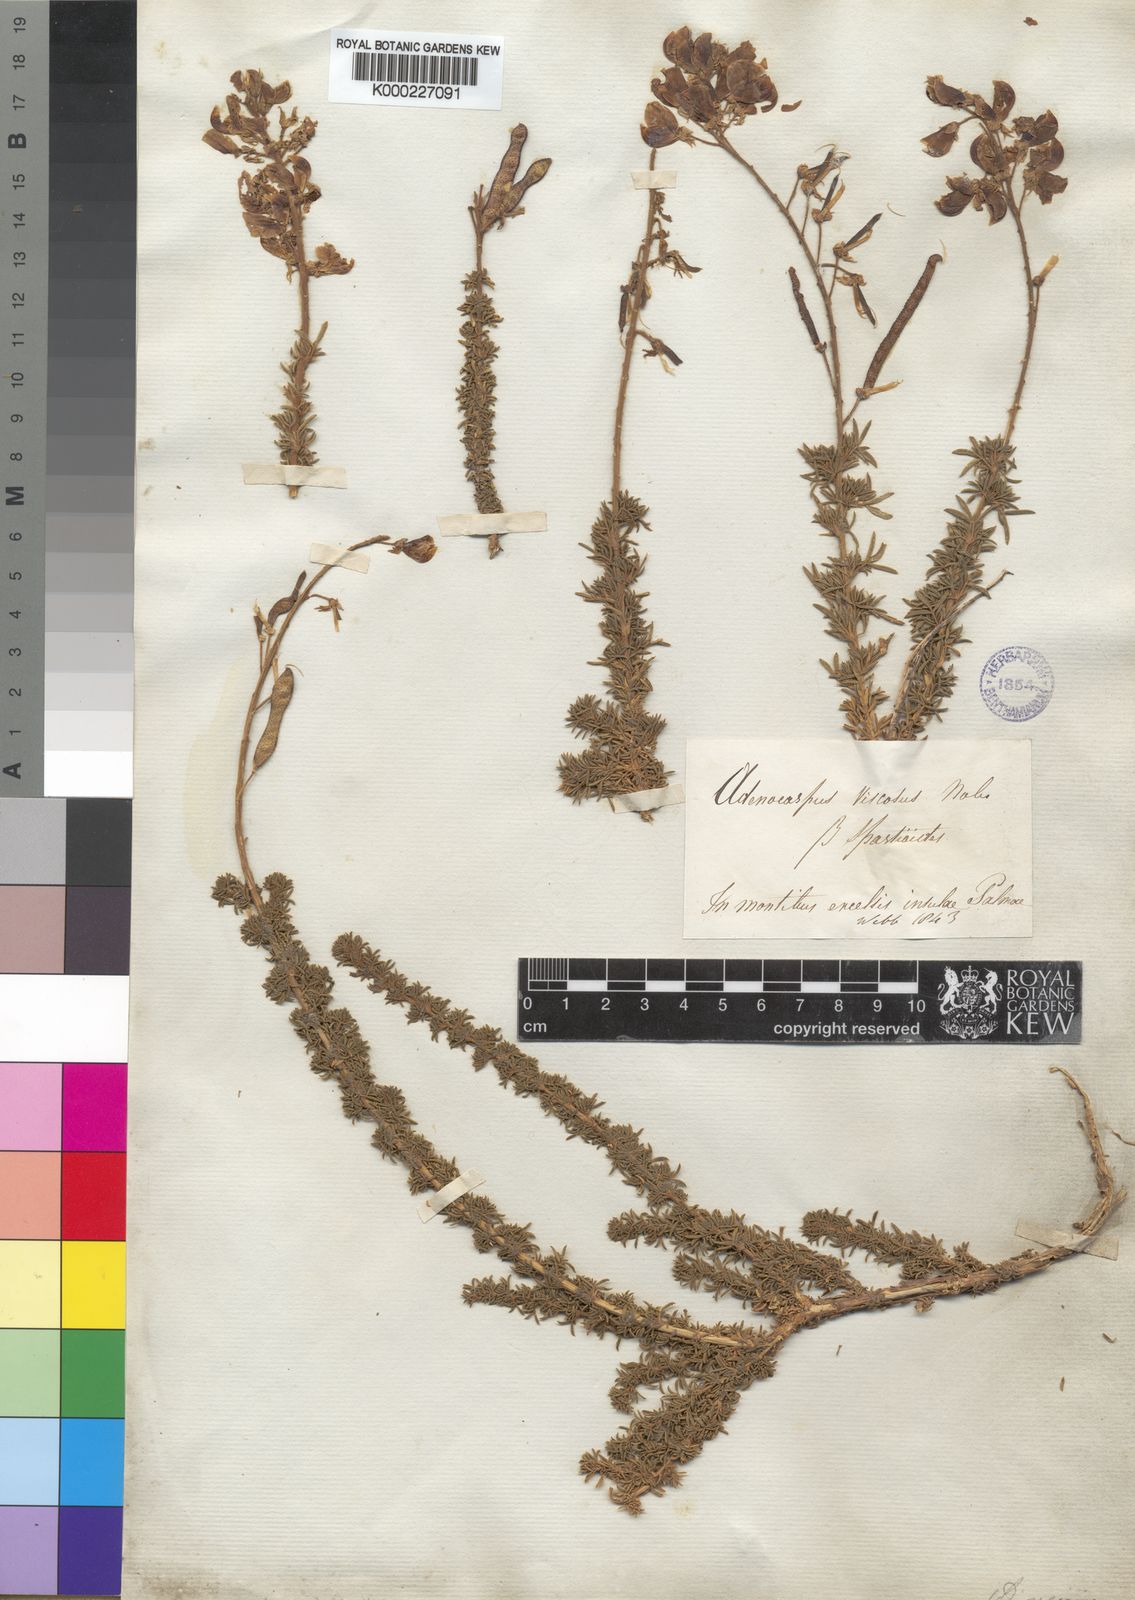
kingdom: Plantae
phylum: Tracheophyta
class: Magnoliopsida
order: Fabales
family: Fabaceae
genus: Adenocarpus
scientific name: Adenocarpus viscosus
